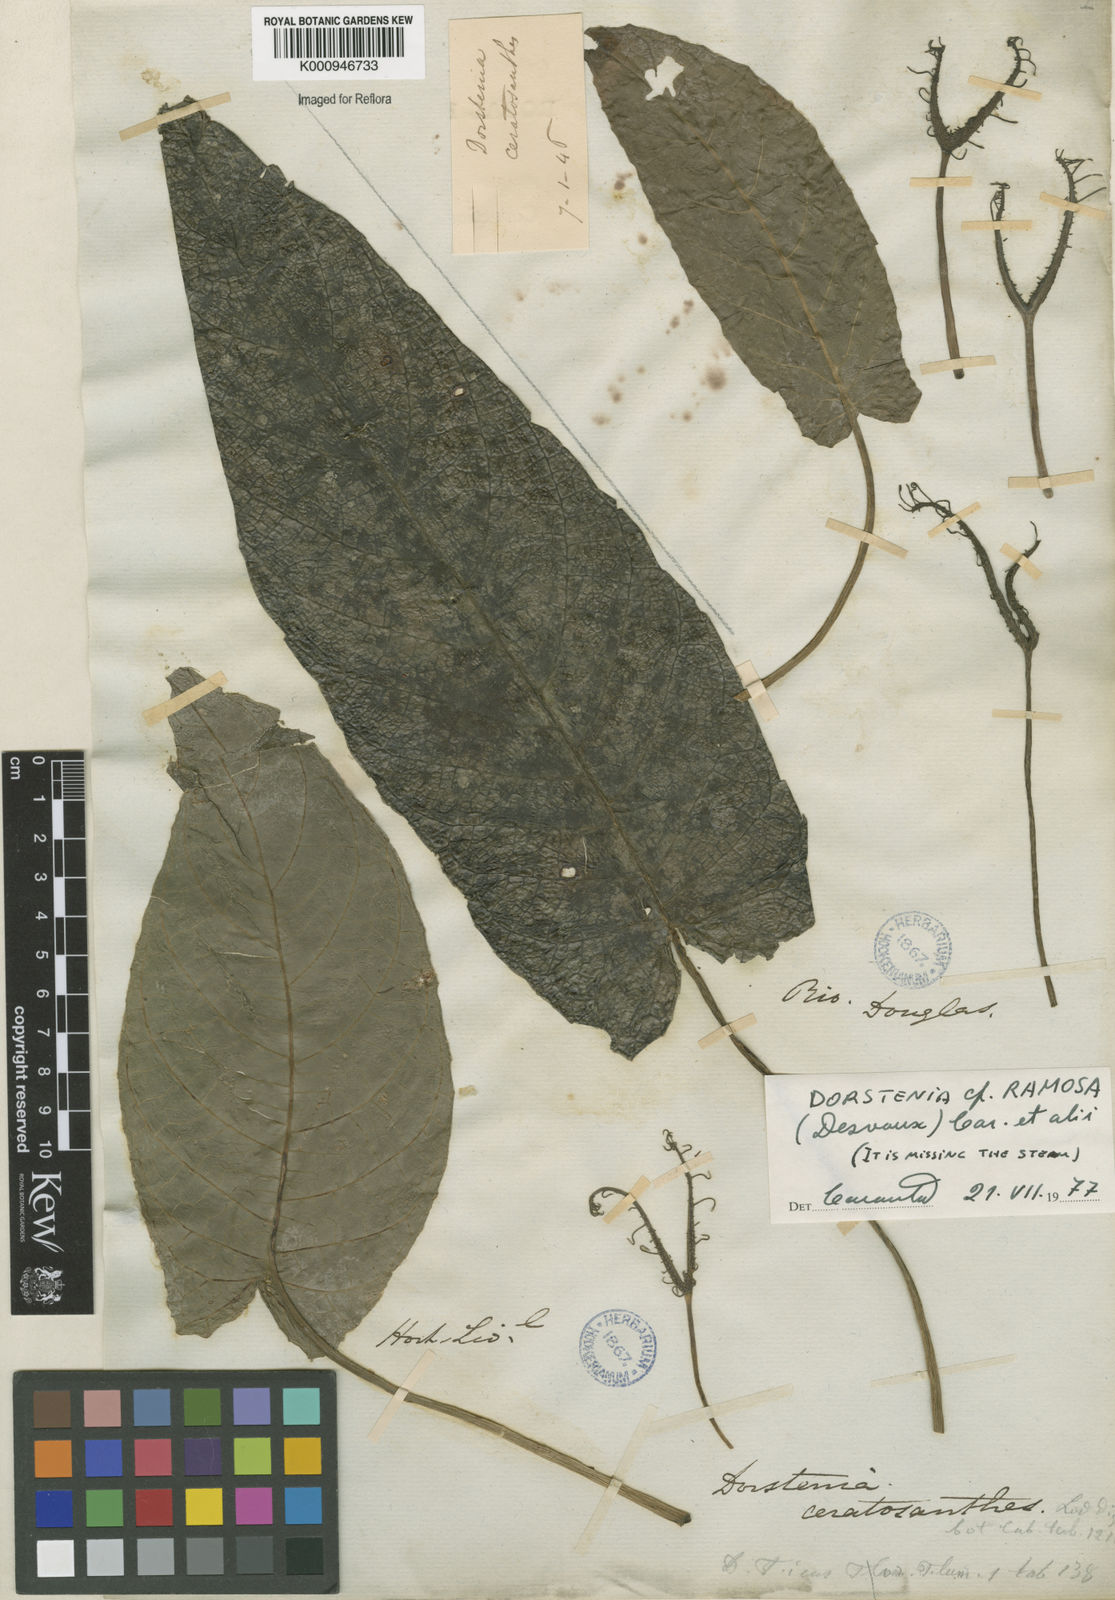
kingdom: Plantae
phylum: Tracheophyta
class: Magnoliopsida
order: Rosales
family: Moraceae
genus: Dorstenia
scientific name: Dorstenia ramosa
